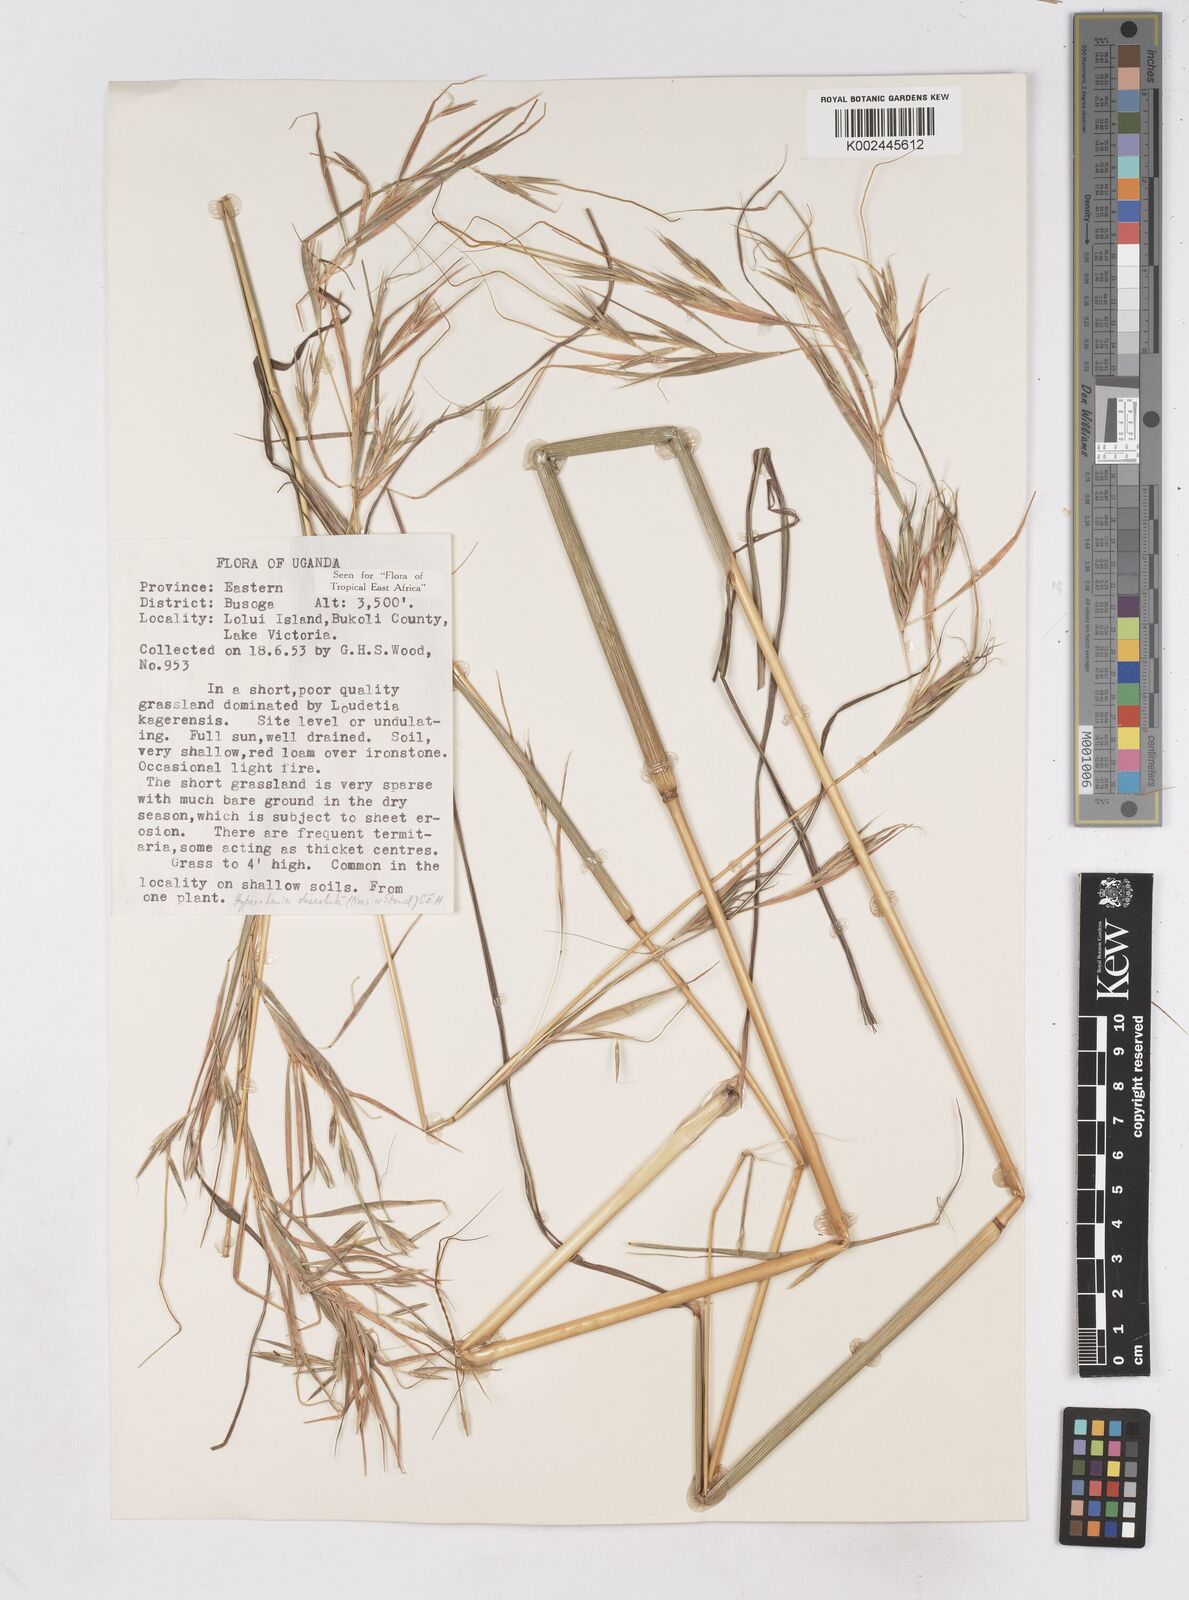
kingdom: Plantae
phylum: Tracheophyta
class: Liliopsida
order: Poales
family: Poaceae
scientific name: Poaceae
